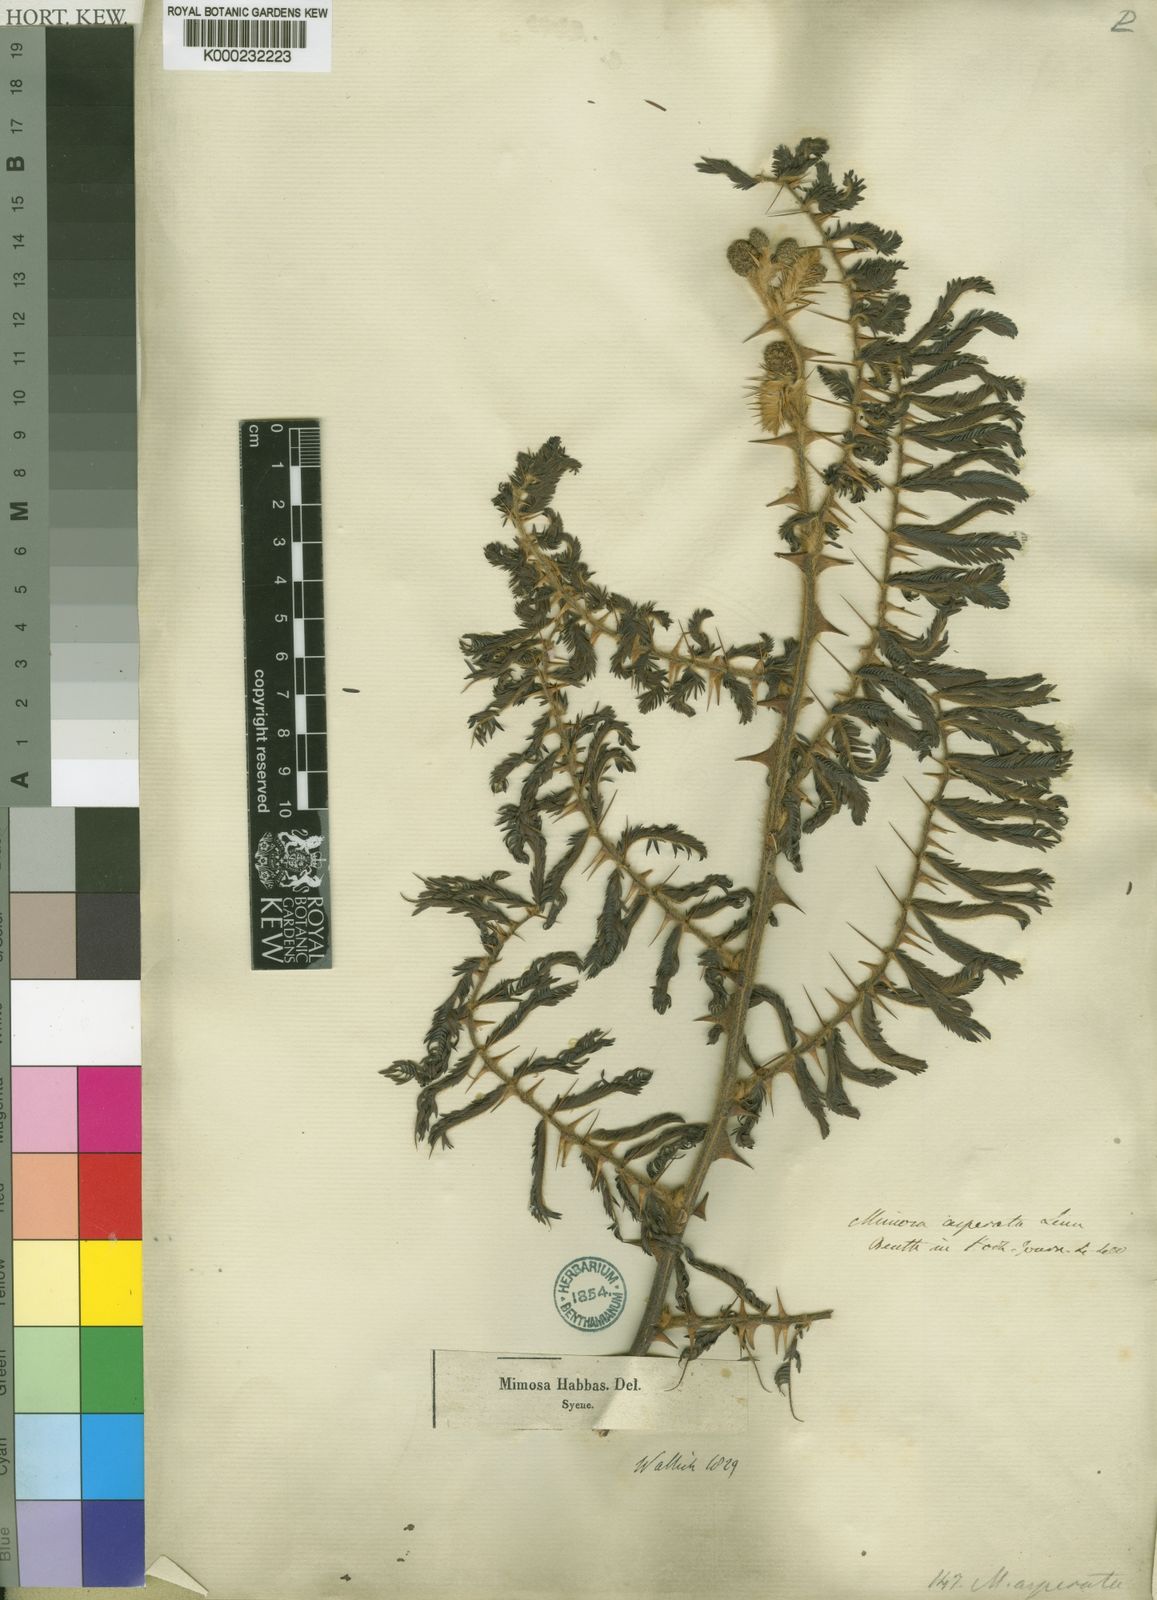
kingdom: Plantae
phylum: Tracheophyta
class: Magnoliopsida
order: Fabales
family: Fabaceae
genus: Mimosa
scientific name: Mimosa pigra
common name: Black mimosa
